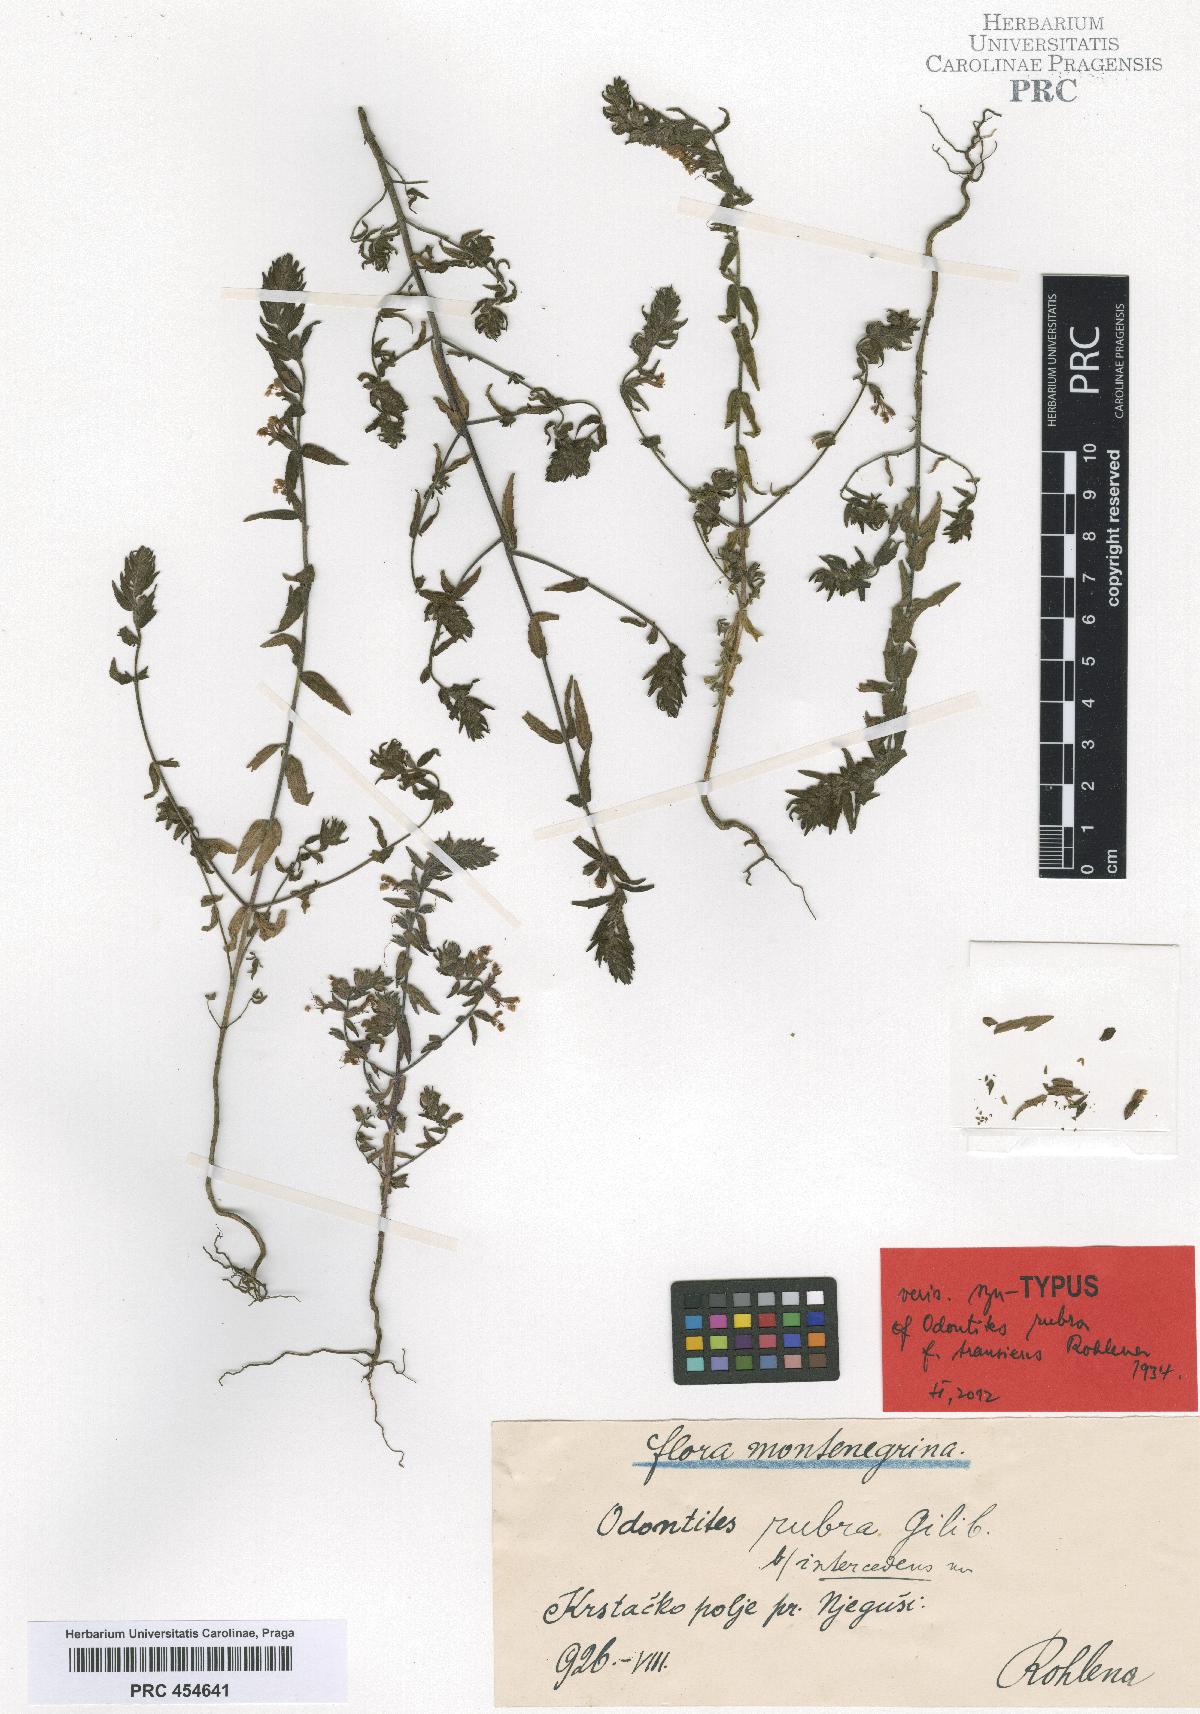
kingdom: Plantae
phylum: Tracheophyta
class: Magnoliopsida
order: Lamiales
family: Orobanchaceae
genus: Odontites
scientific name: Odontites vulgaris
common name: Broomrape
